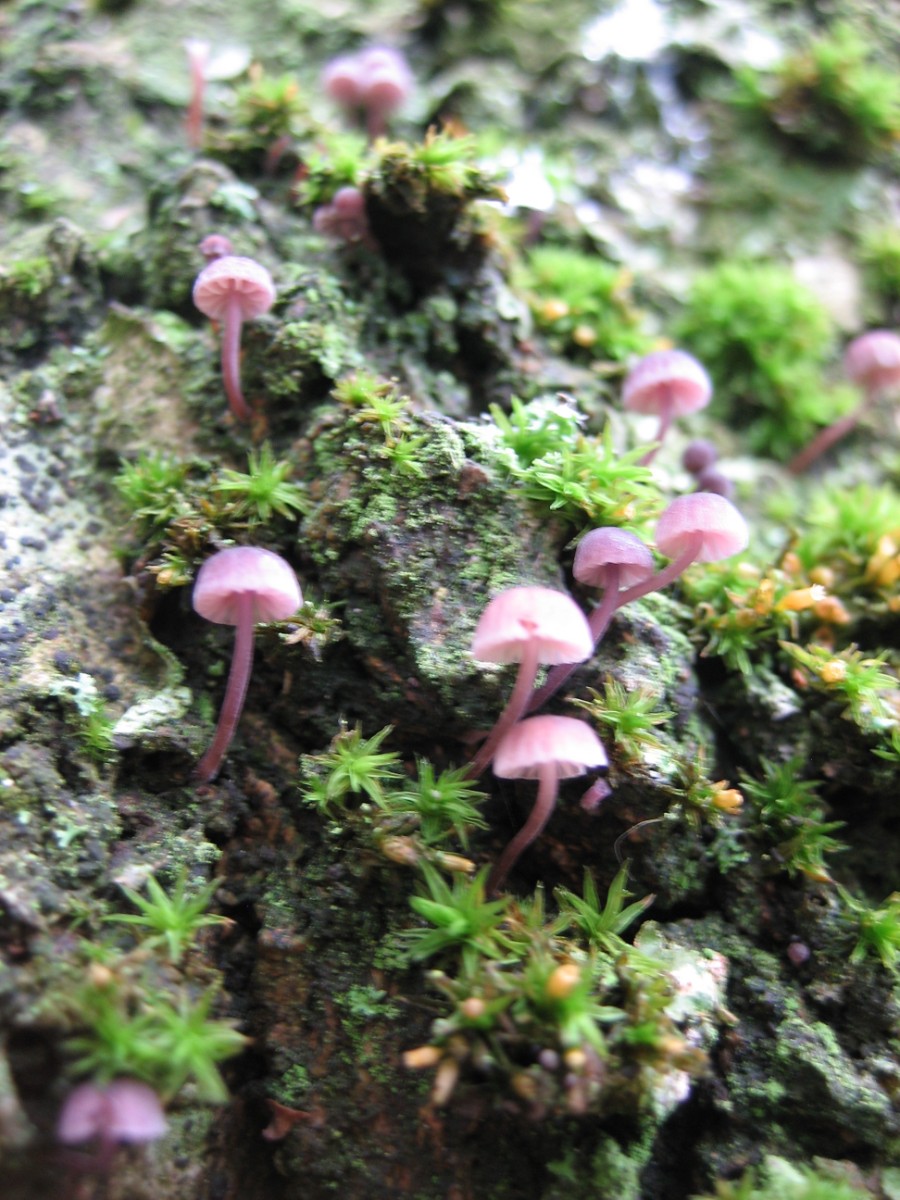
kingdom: Fungi
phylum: Basidiomycota
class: Agaricomycetes
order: Agaricales
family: Mycenaceae
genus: Mycena
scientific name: Mycena meliigena
